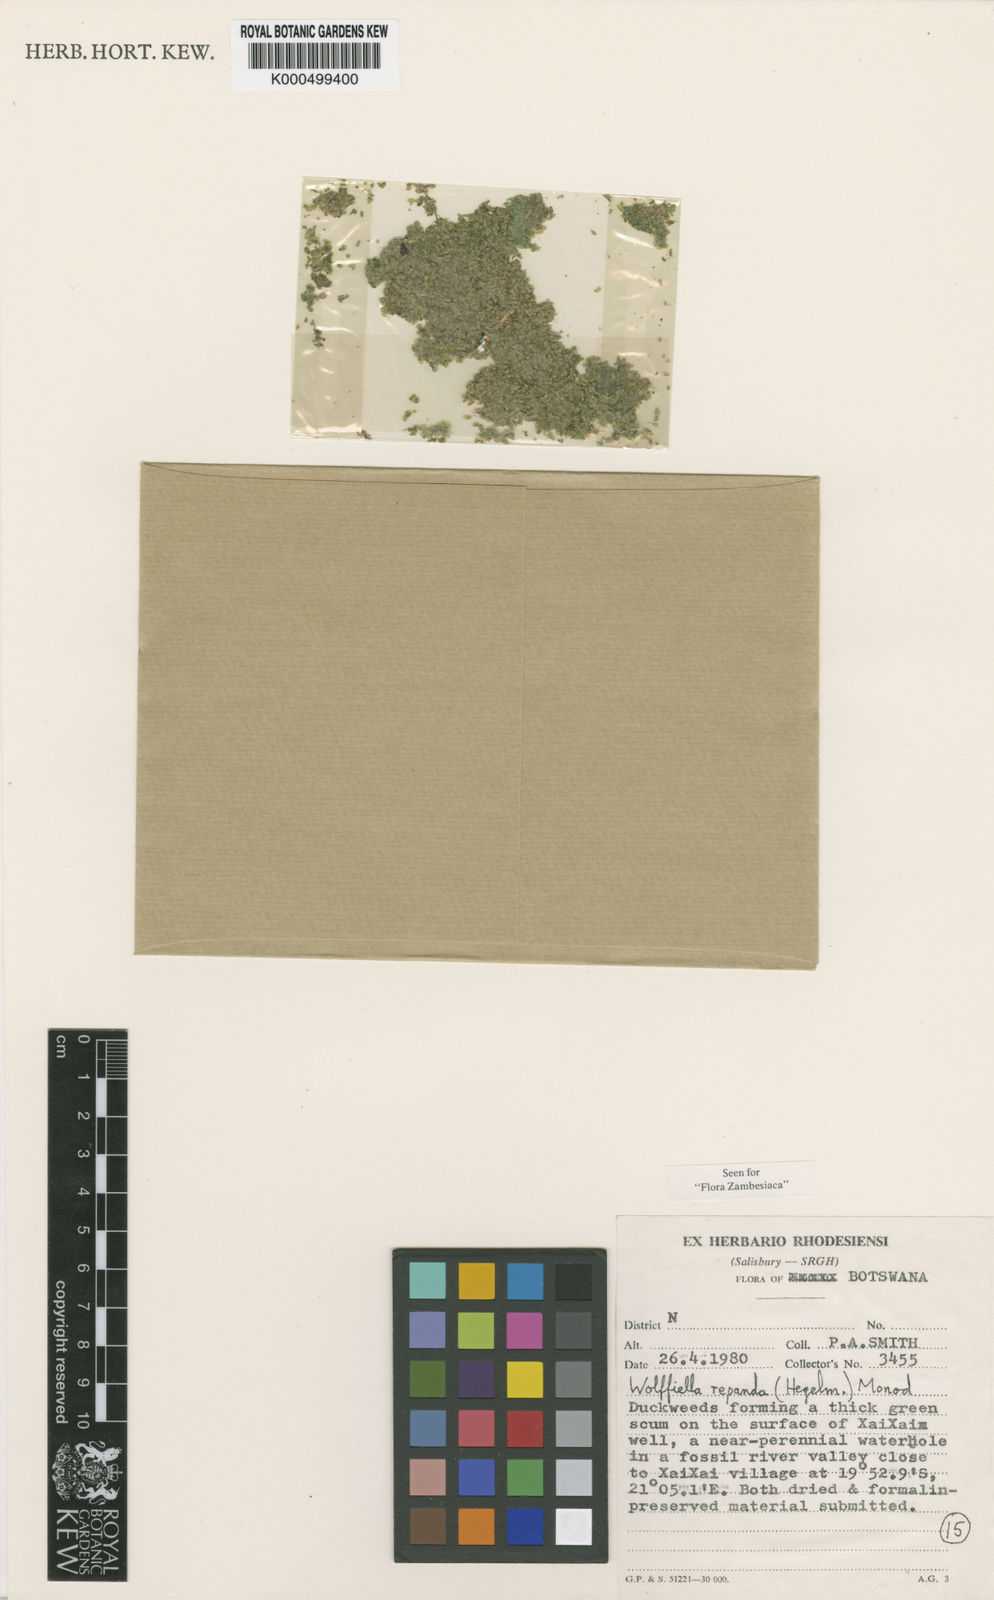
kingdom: Plantae
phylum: Tracheophyta
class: Liliopsida
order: Alismatales
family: Araceae
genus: Wolffiella
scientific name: Wolffiella repanda
